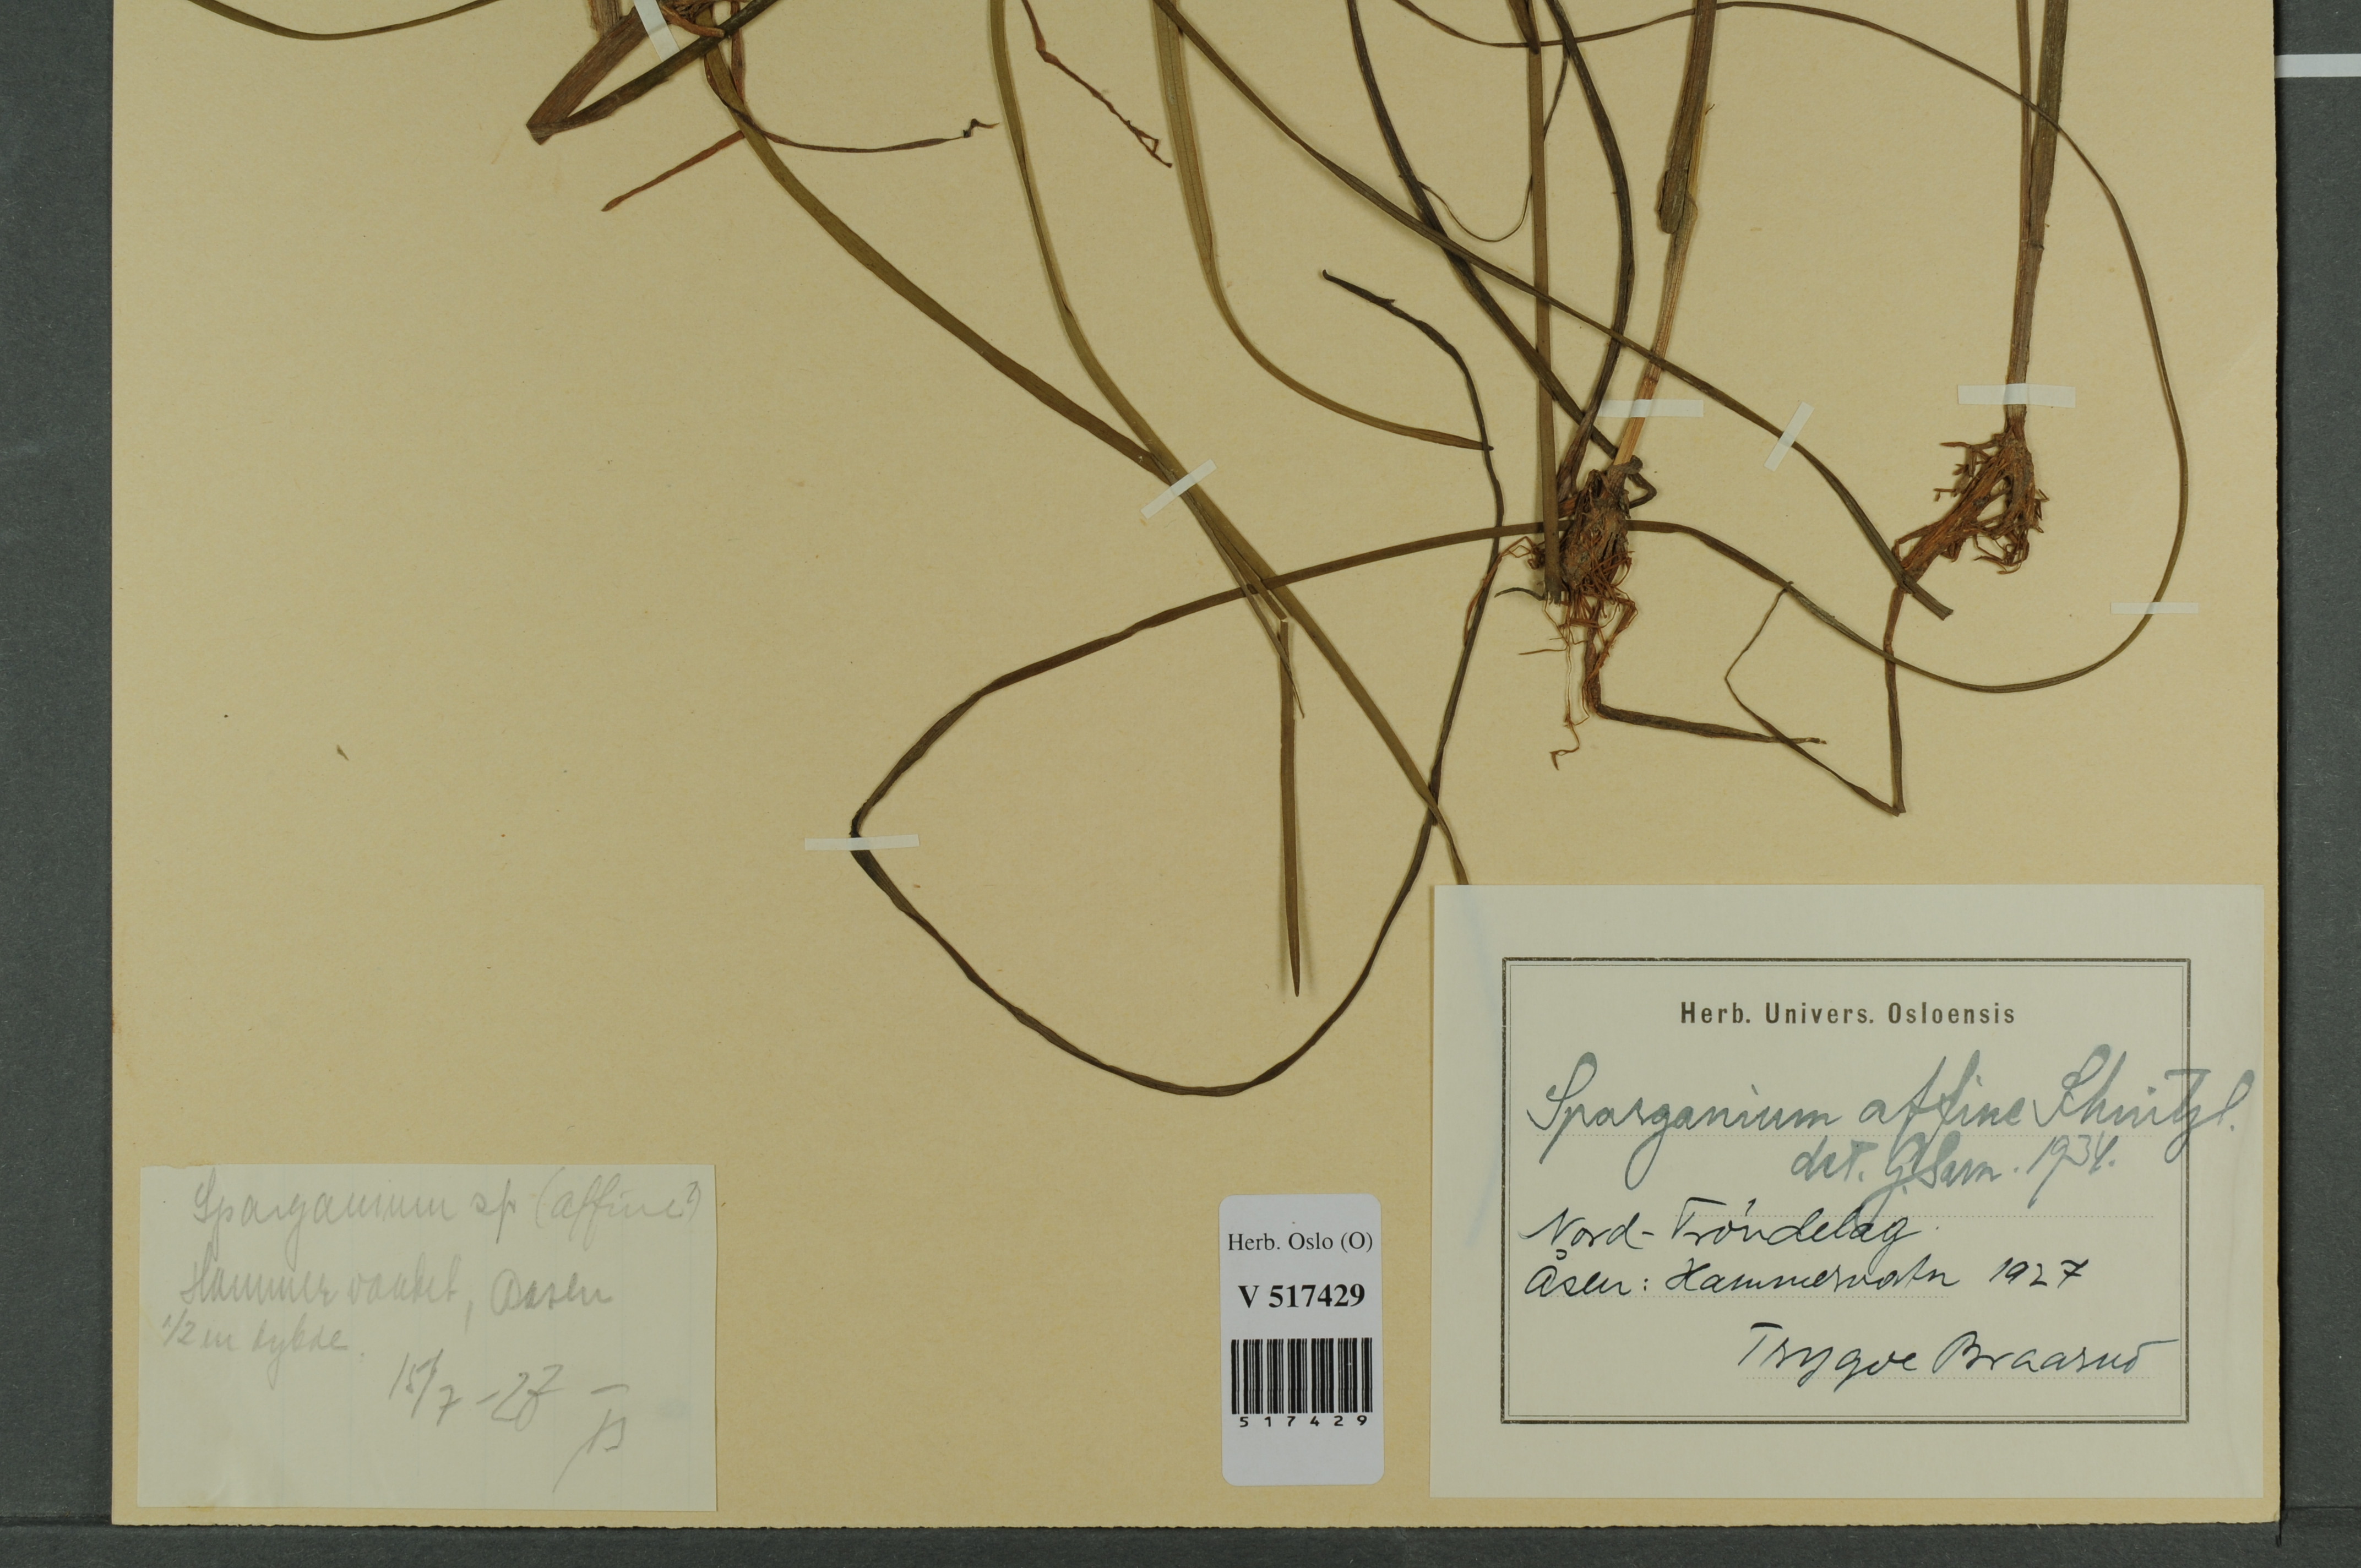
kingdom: Plantae
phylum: Tracheophyta
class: Liliopsida
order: Poales
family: Typhaceae
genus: Sparganium
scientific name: Sparganium angustifolium
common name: Floating bur-reed
